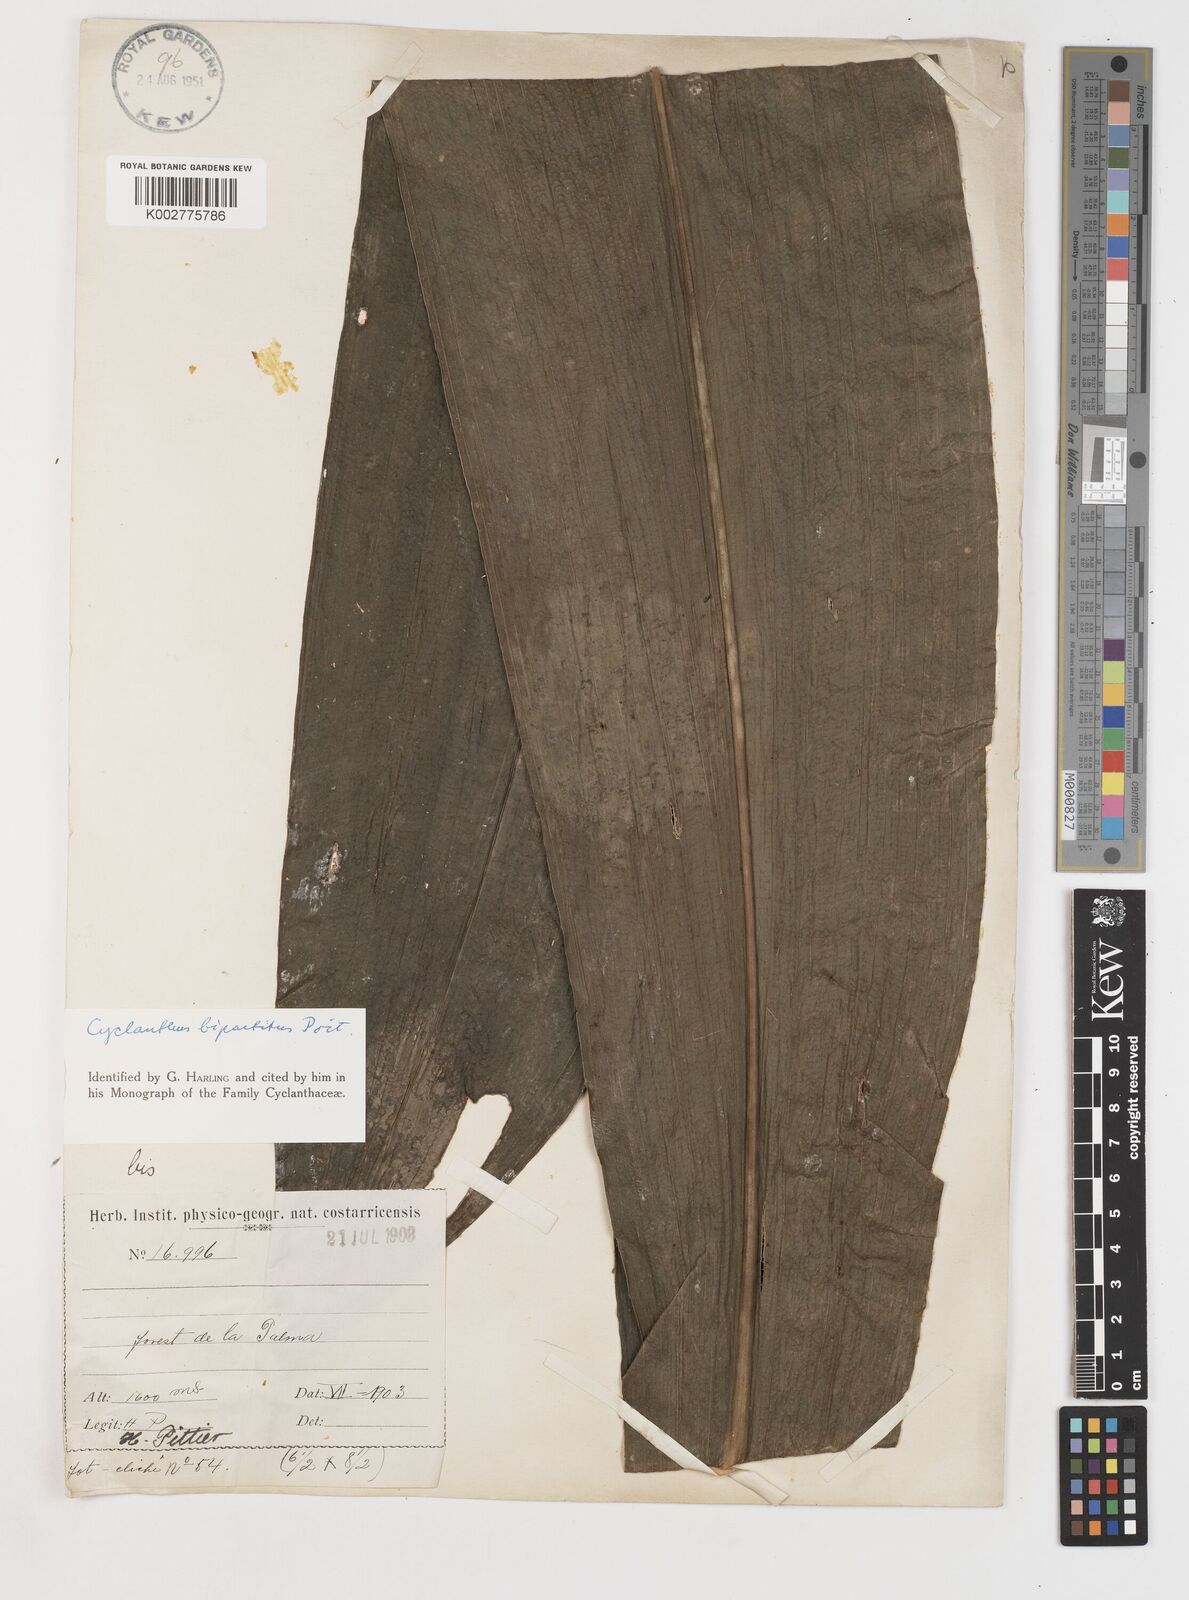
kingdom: Plantae
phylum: Tracheophyta
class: Liliopsida
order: Pandanales
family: Cyclanthaceae
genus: Cyclanthus
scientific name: Cyclanthus bipartitus
